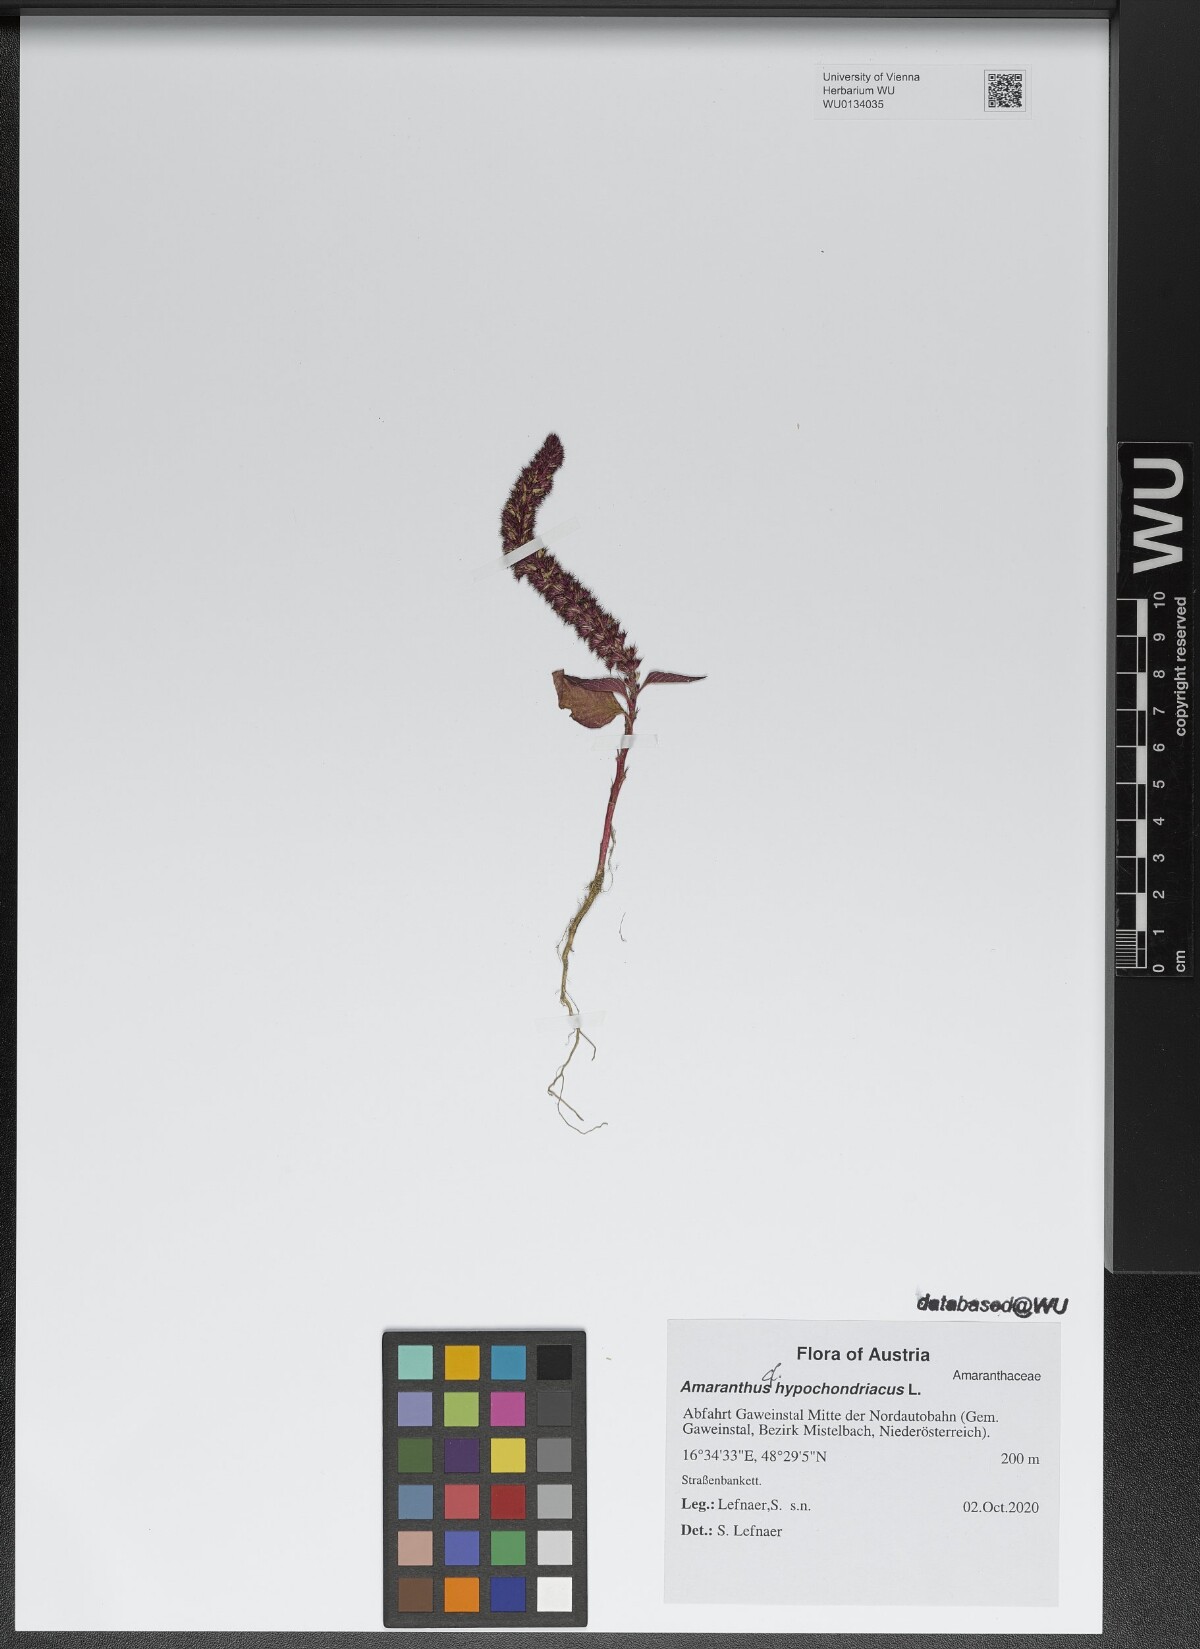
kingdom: Plantae
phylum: Tracheophyta
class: Magnoliopsida
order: Caryophyllales
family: Amaranthaceae
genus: Amaranthus
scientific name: Amaranthus hypochondriacus
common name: Prince's-feather
